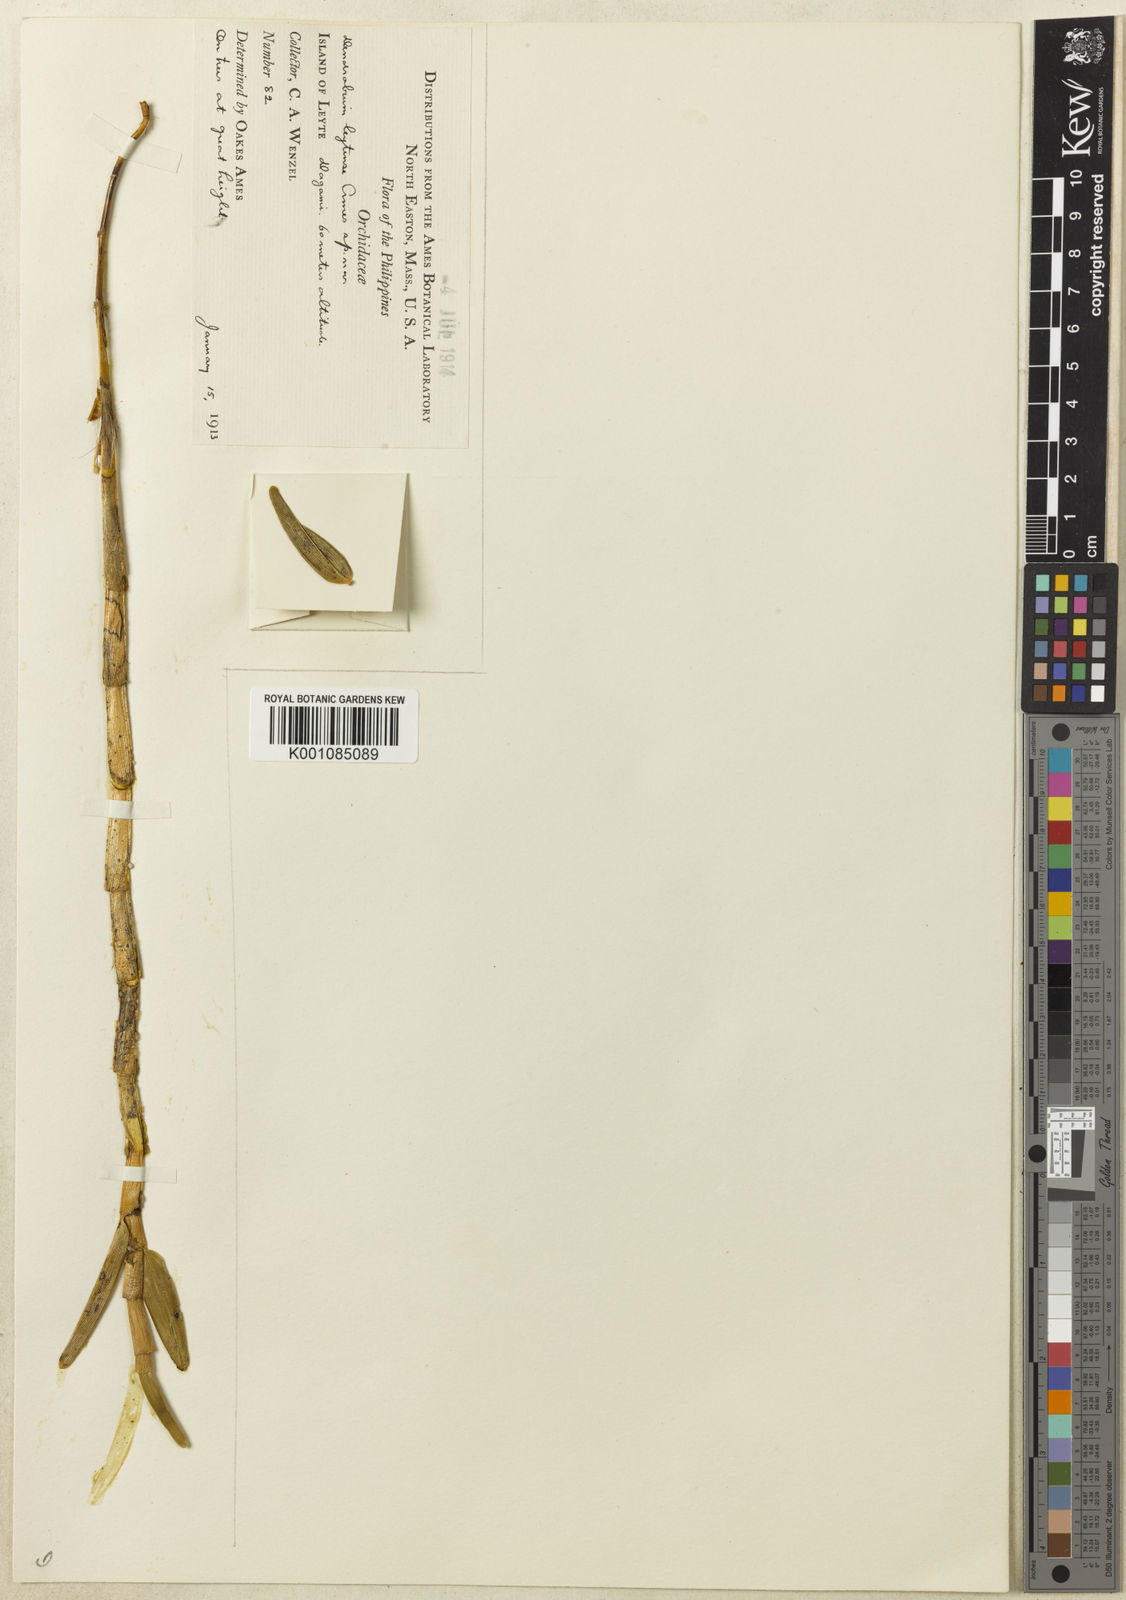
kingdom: Plantae
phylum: Tracheophyta
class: Liliopsida
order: Asparagales
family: Orchidaceae
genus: Dendrobium
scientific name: Dendrobium planum
